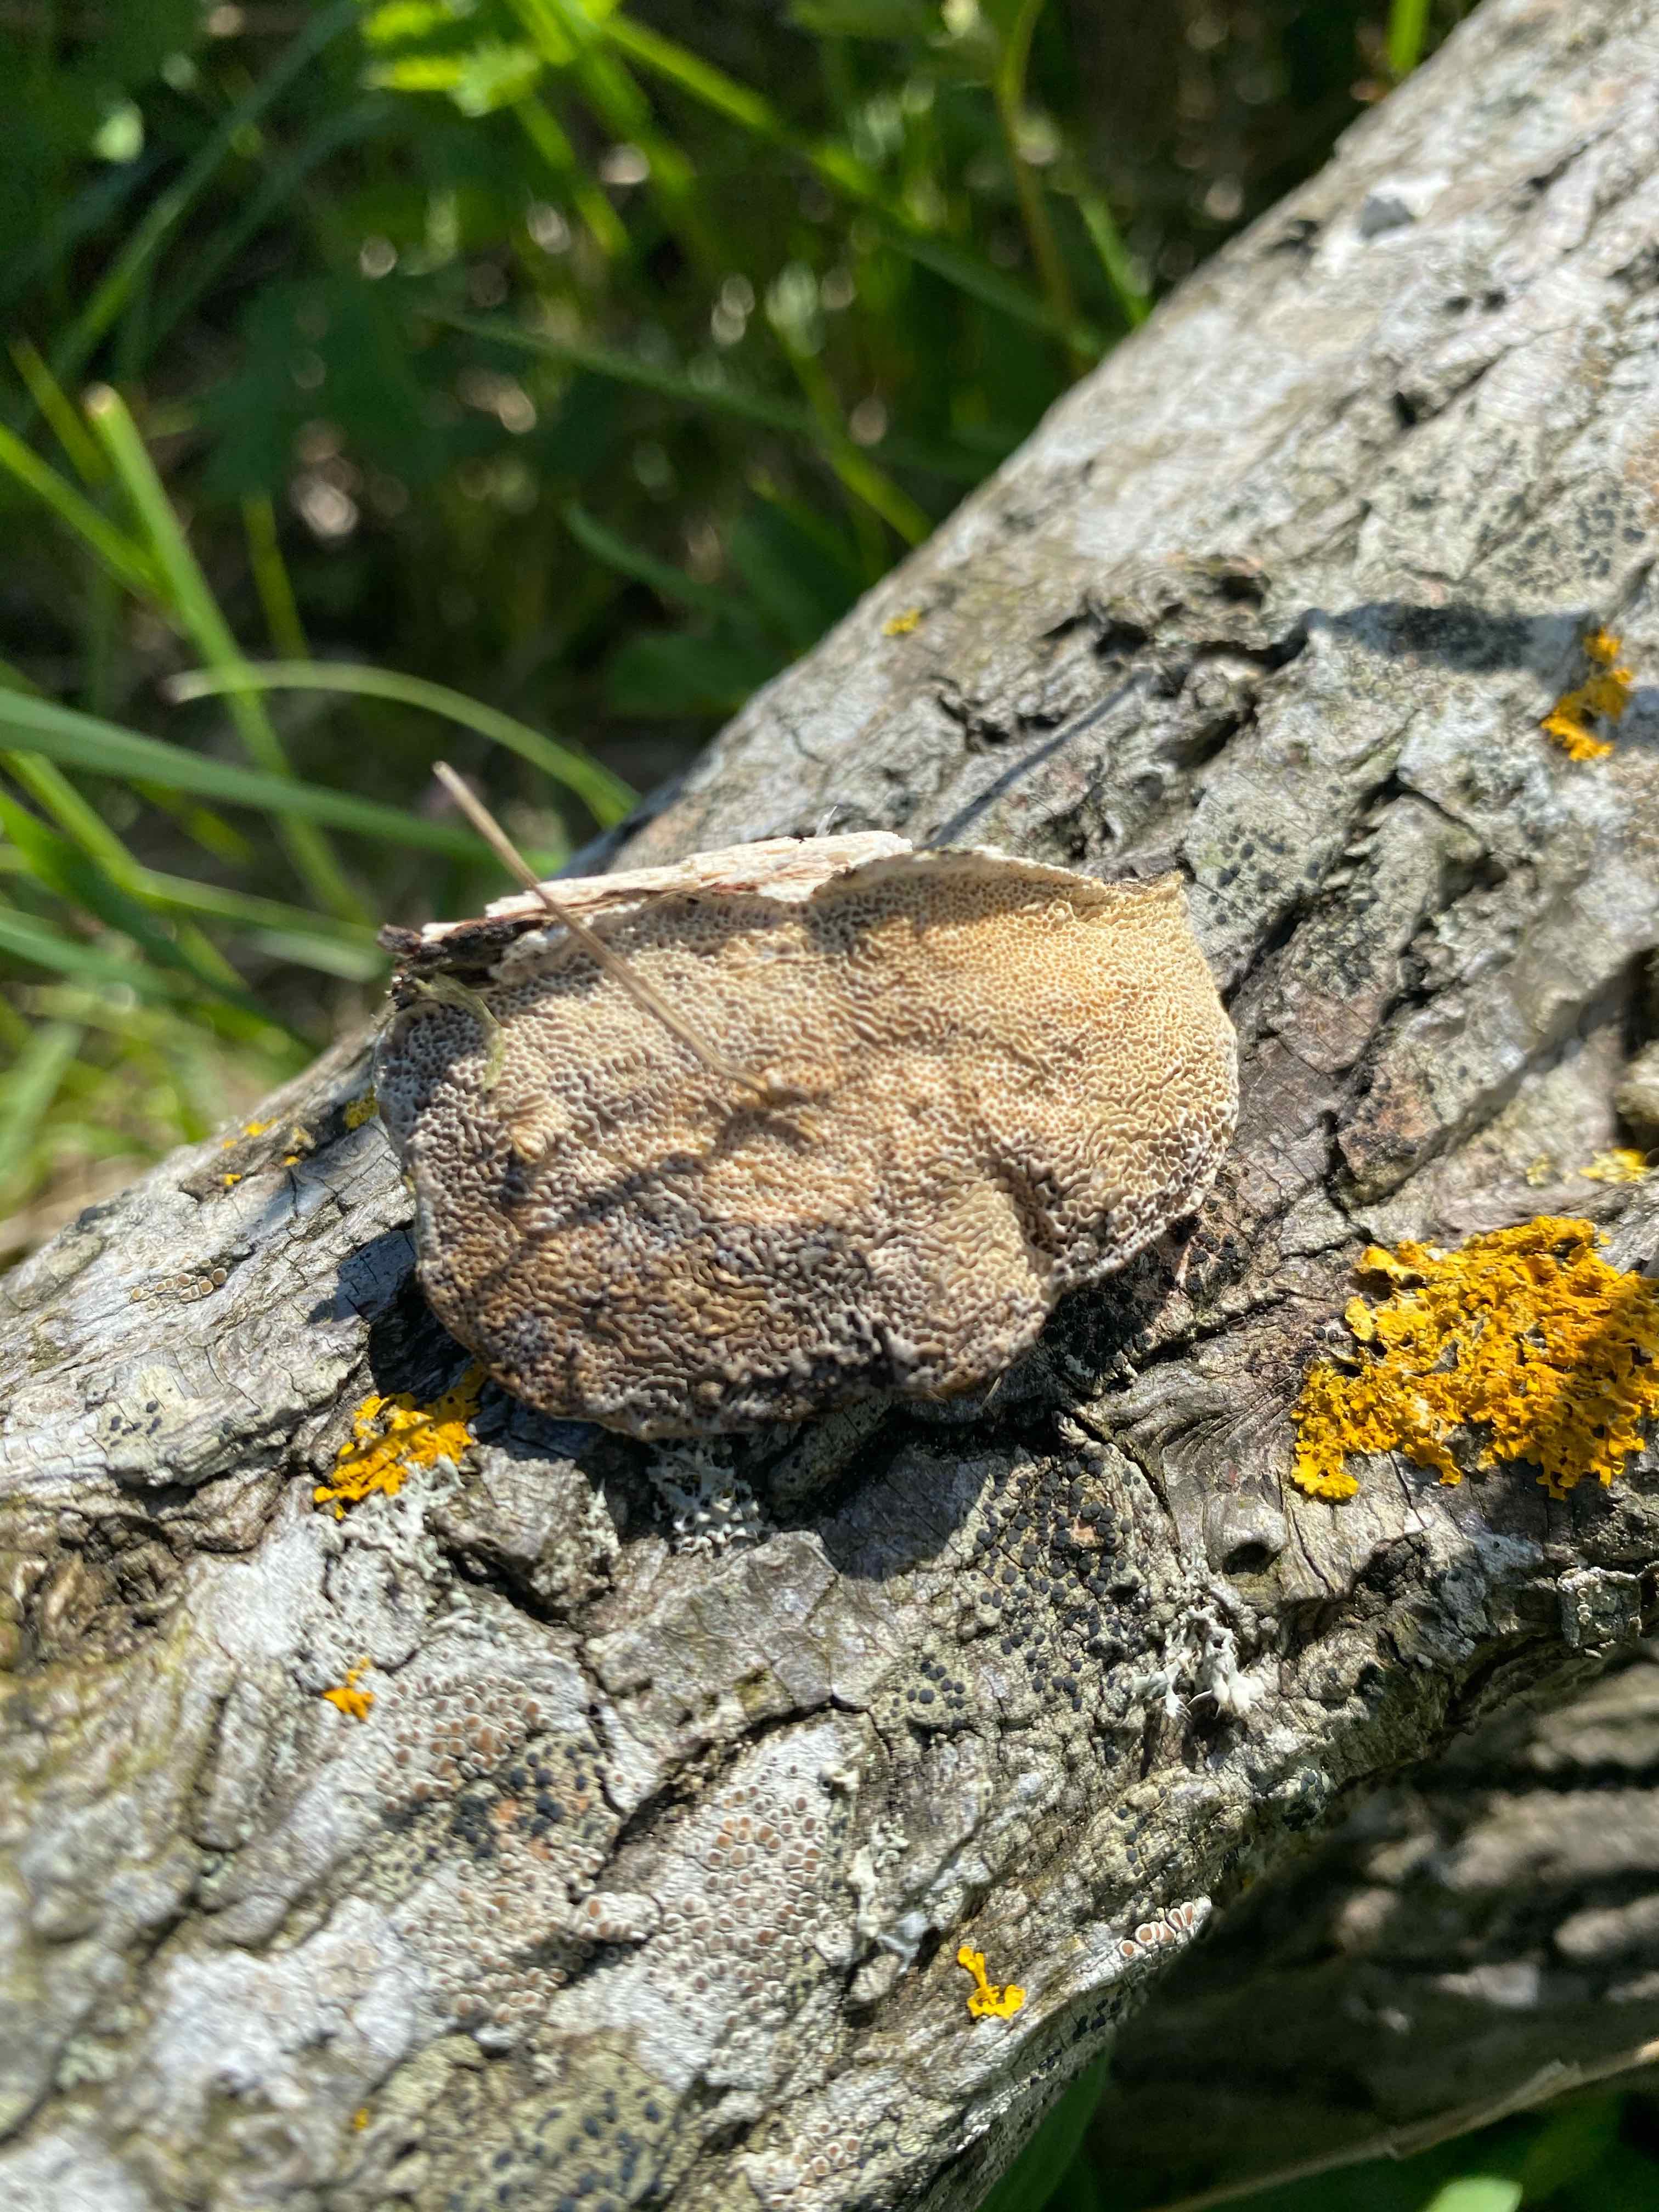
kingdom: Fungi
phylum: Basidiomycota
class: Agaricomycetes
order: Polyporales
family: Polyporaceae
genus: Trametes
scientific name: Trametes hirsuta
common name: håret læderporesvamp
